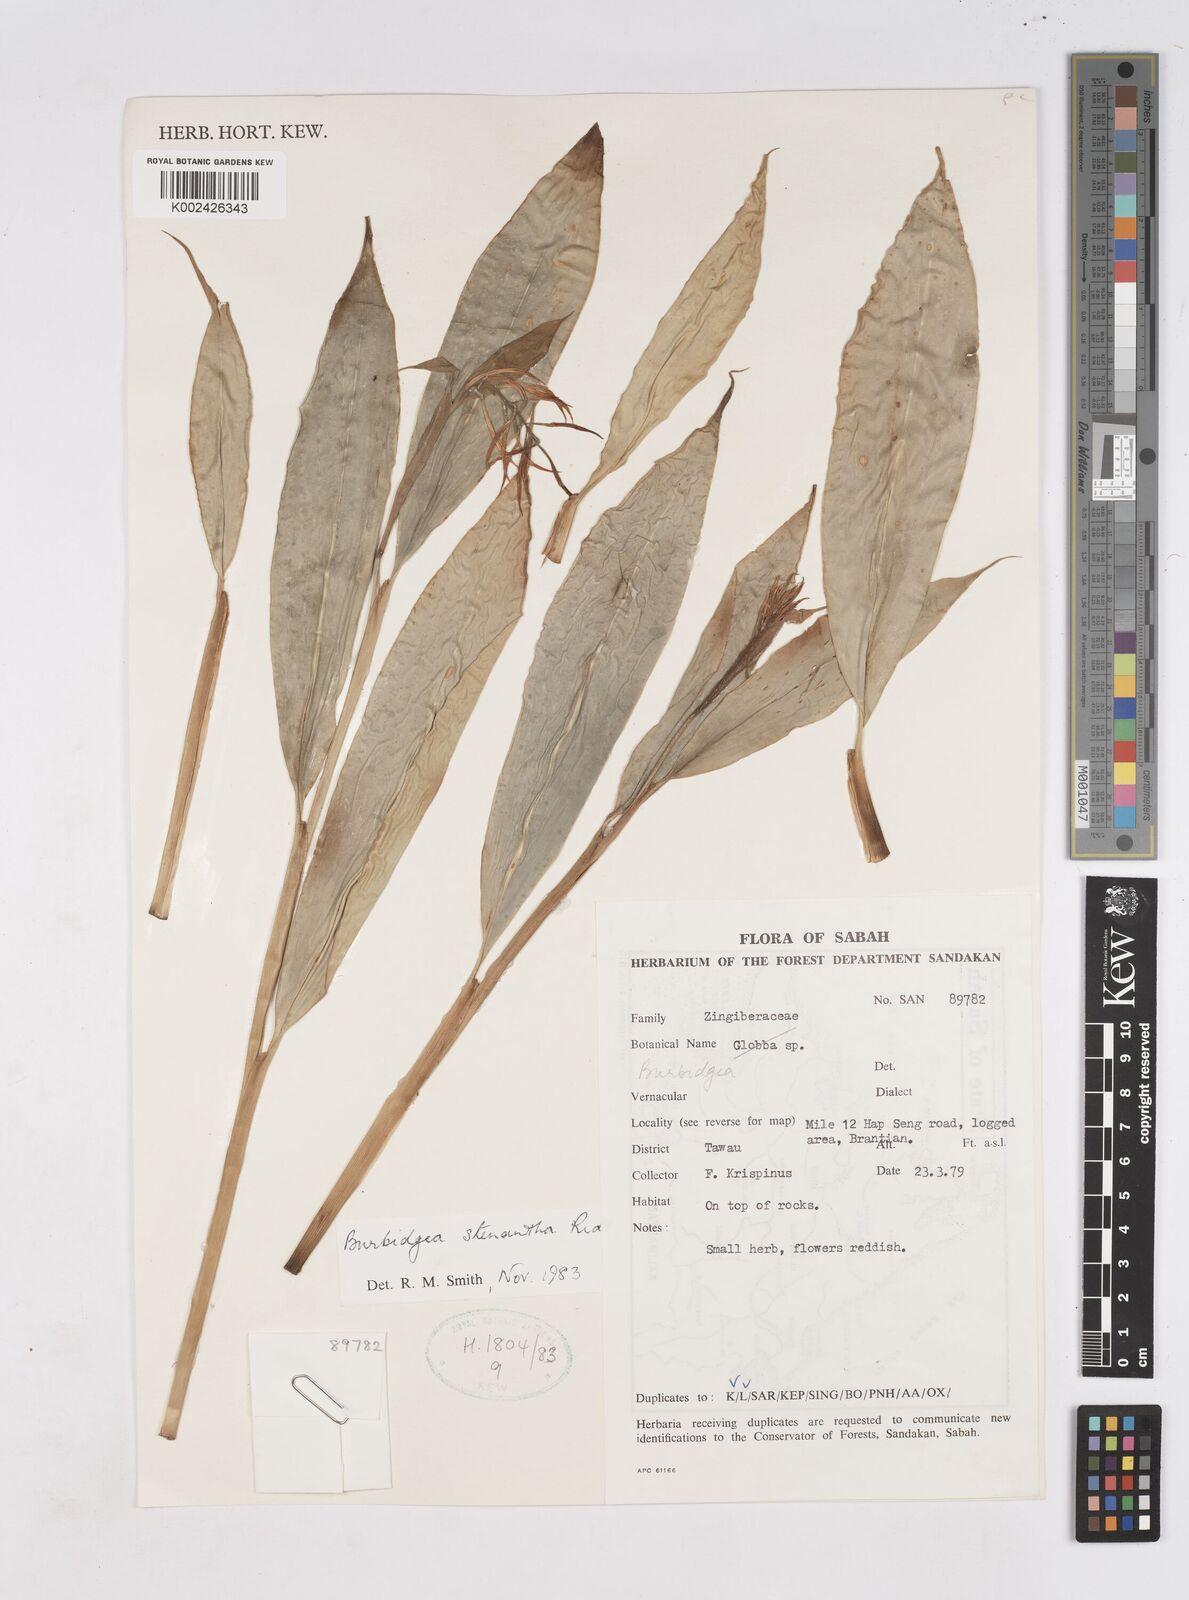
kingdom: Plantae
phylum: Tracheophyta
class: Liliopsida
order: Zingiberales
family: Zingiberaceae
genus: Burbidgea
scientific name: Burbidgea stenantha
